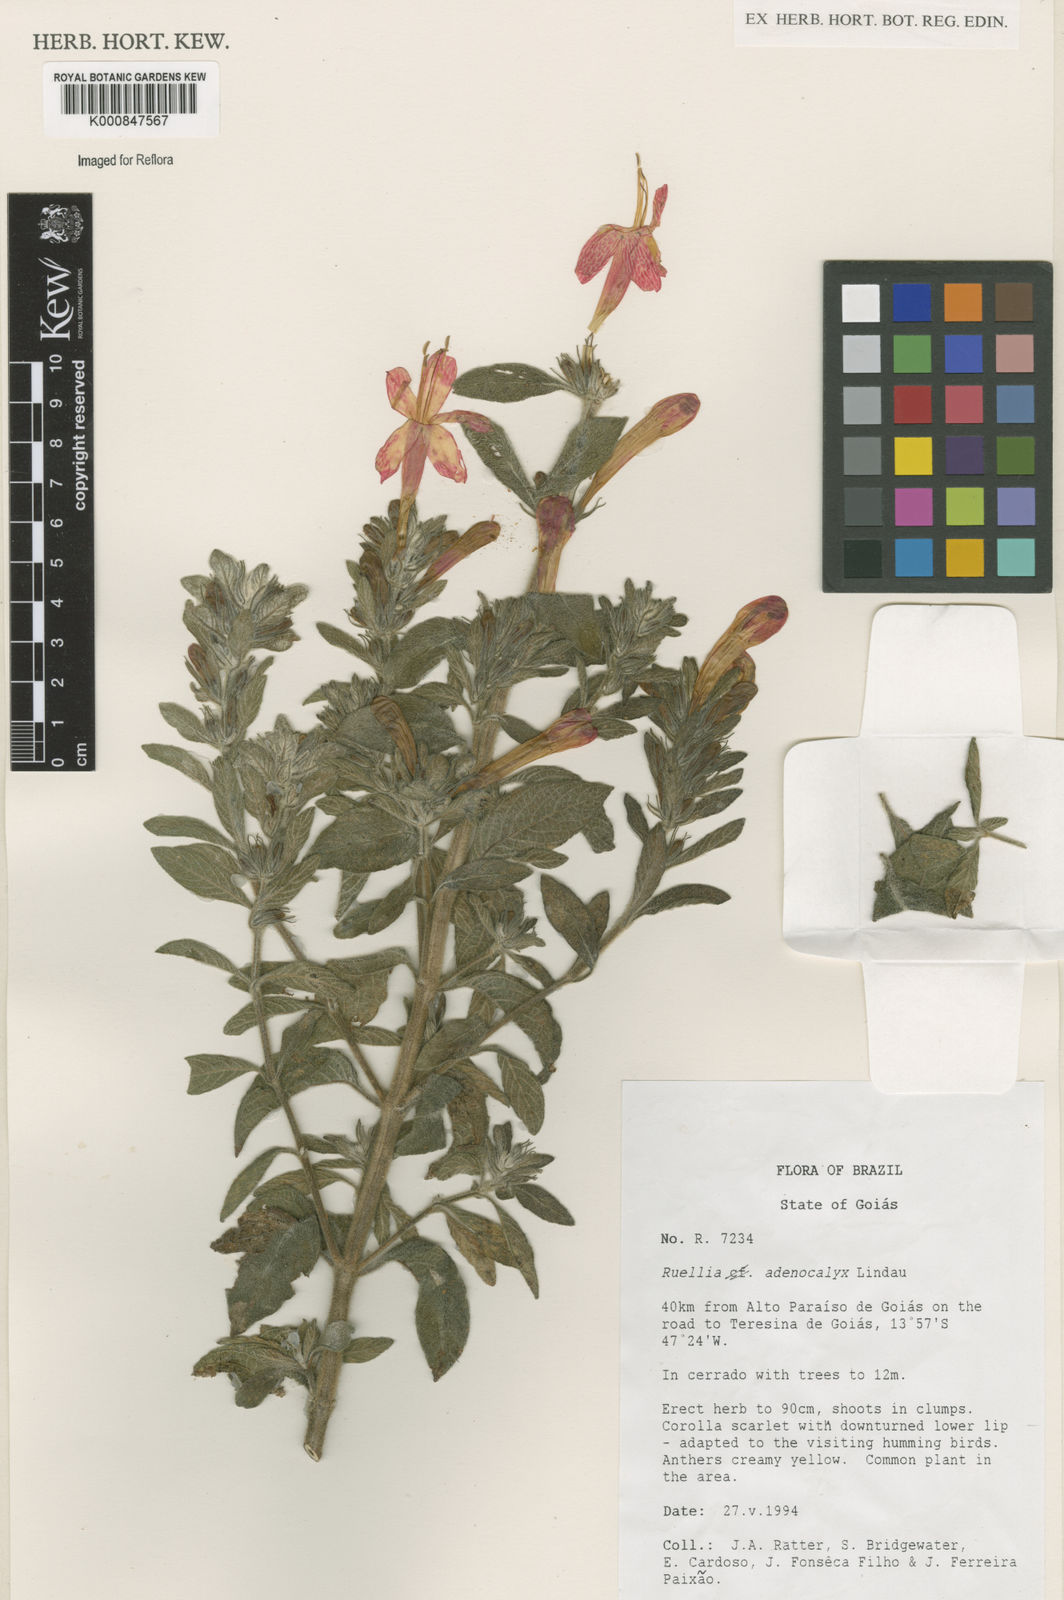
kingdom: Plantae
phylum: Tracheophyta
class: Magnoliopsida
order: Lamiales
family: Acanthaceae
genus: Ruellia
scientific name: Ruellia adenocalyx
